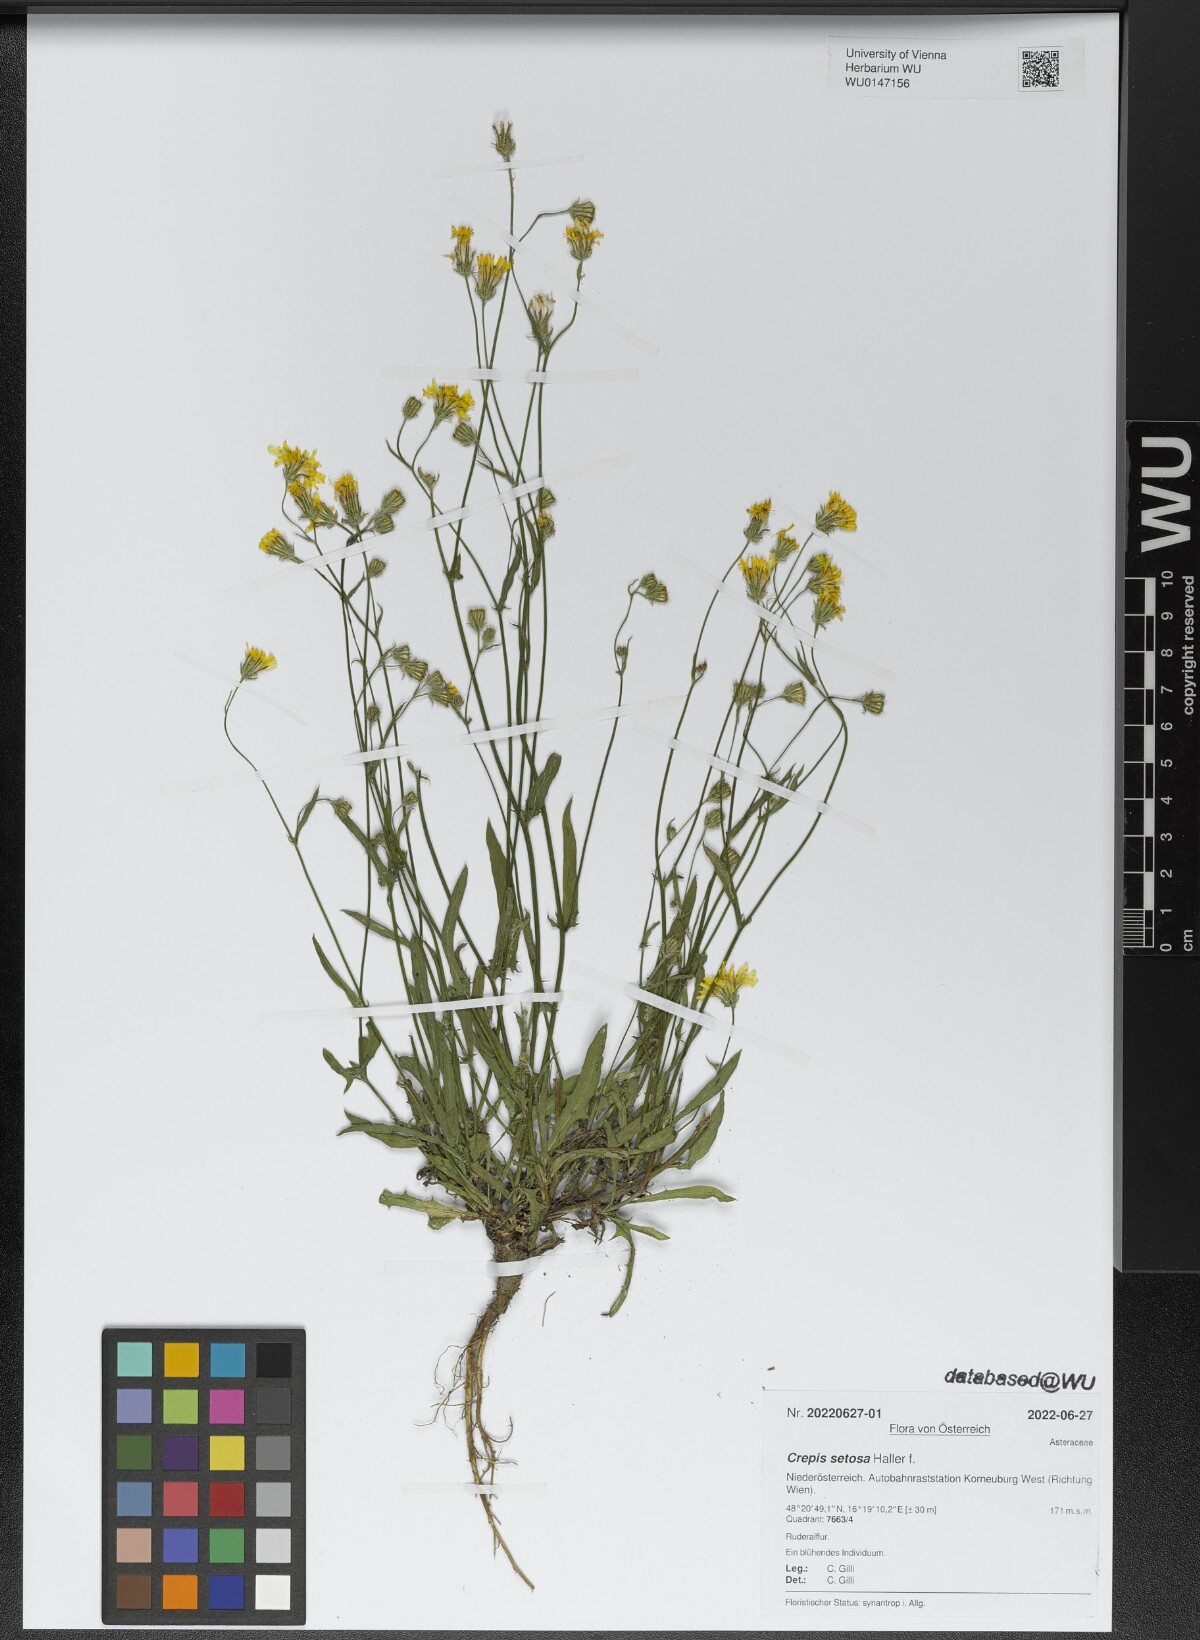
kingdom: Plantae
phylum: Tracheophyta
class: Magnoliopsida
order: Asterales
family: Asteraceae
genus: Crepis
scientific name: Crepis setosa
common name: Bristly hawk's-beard
